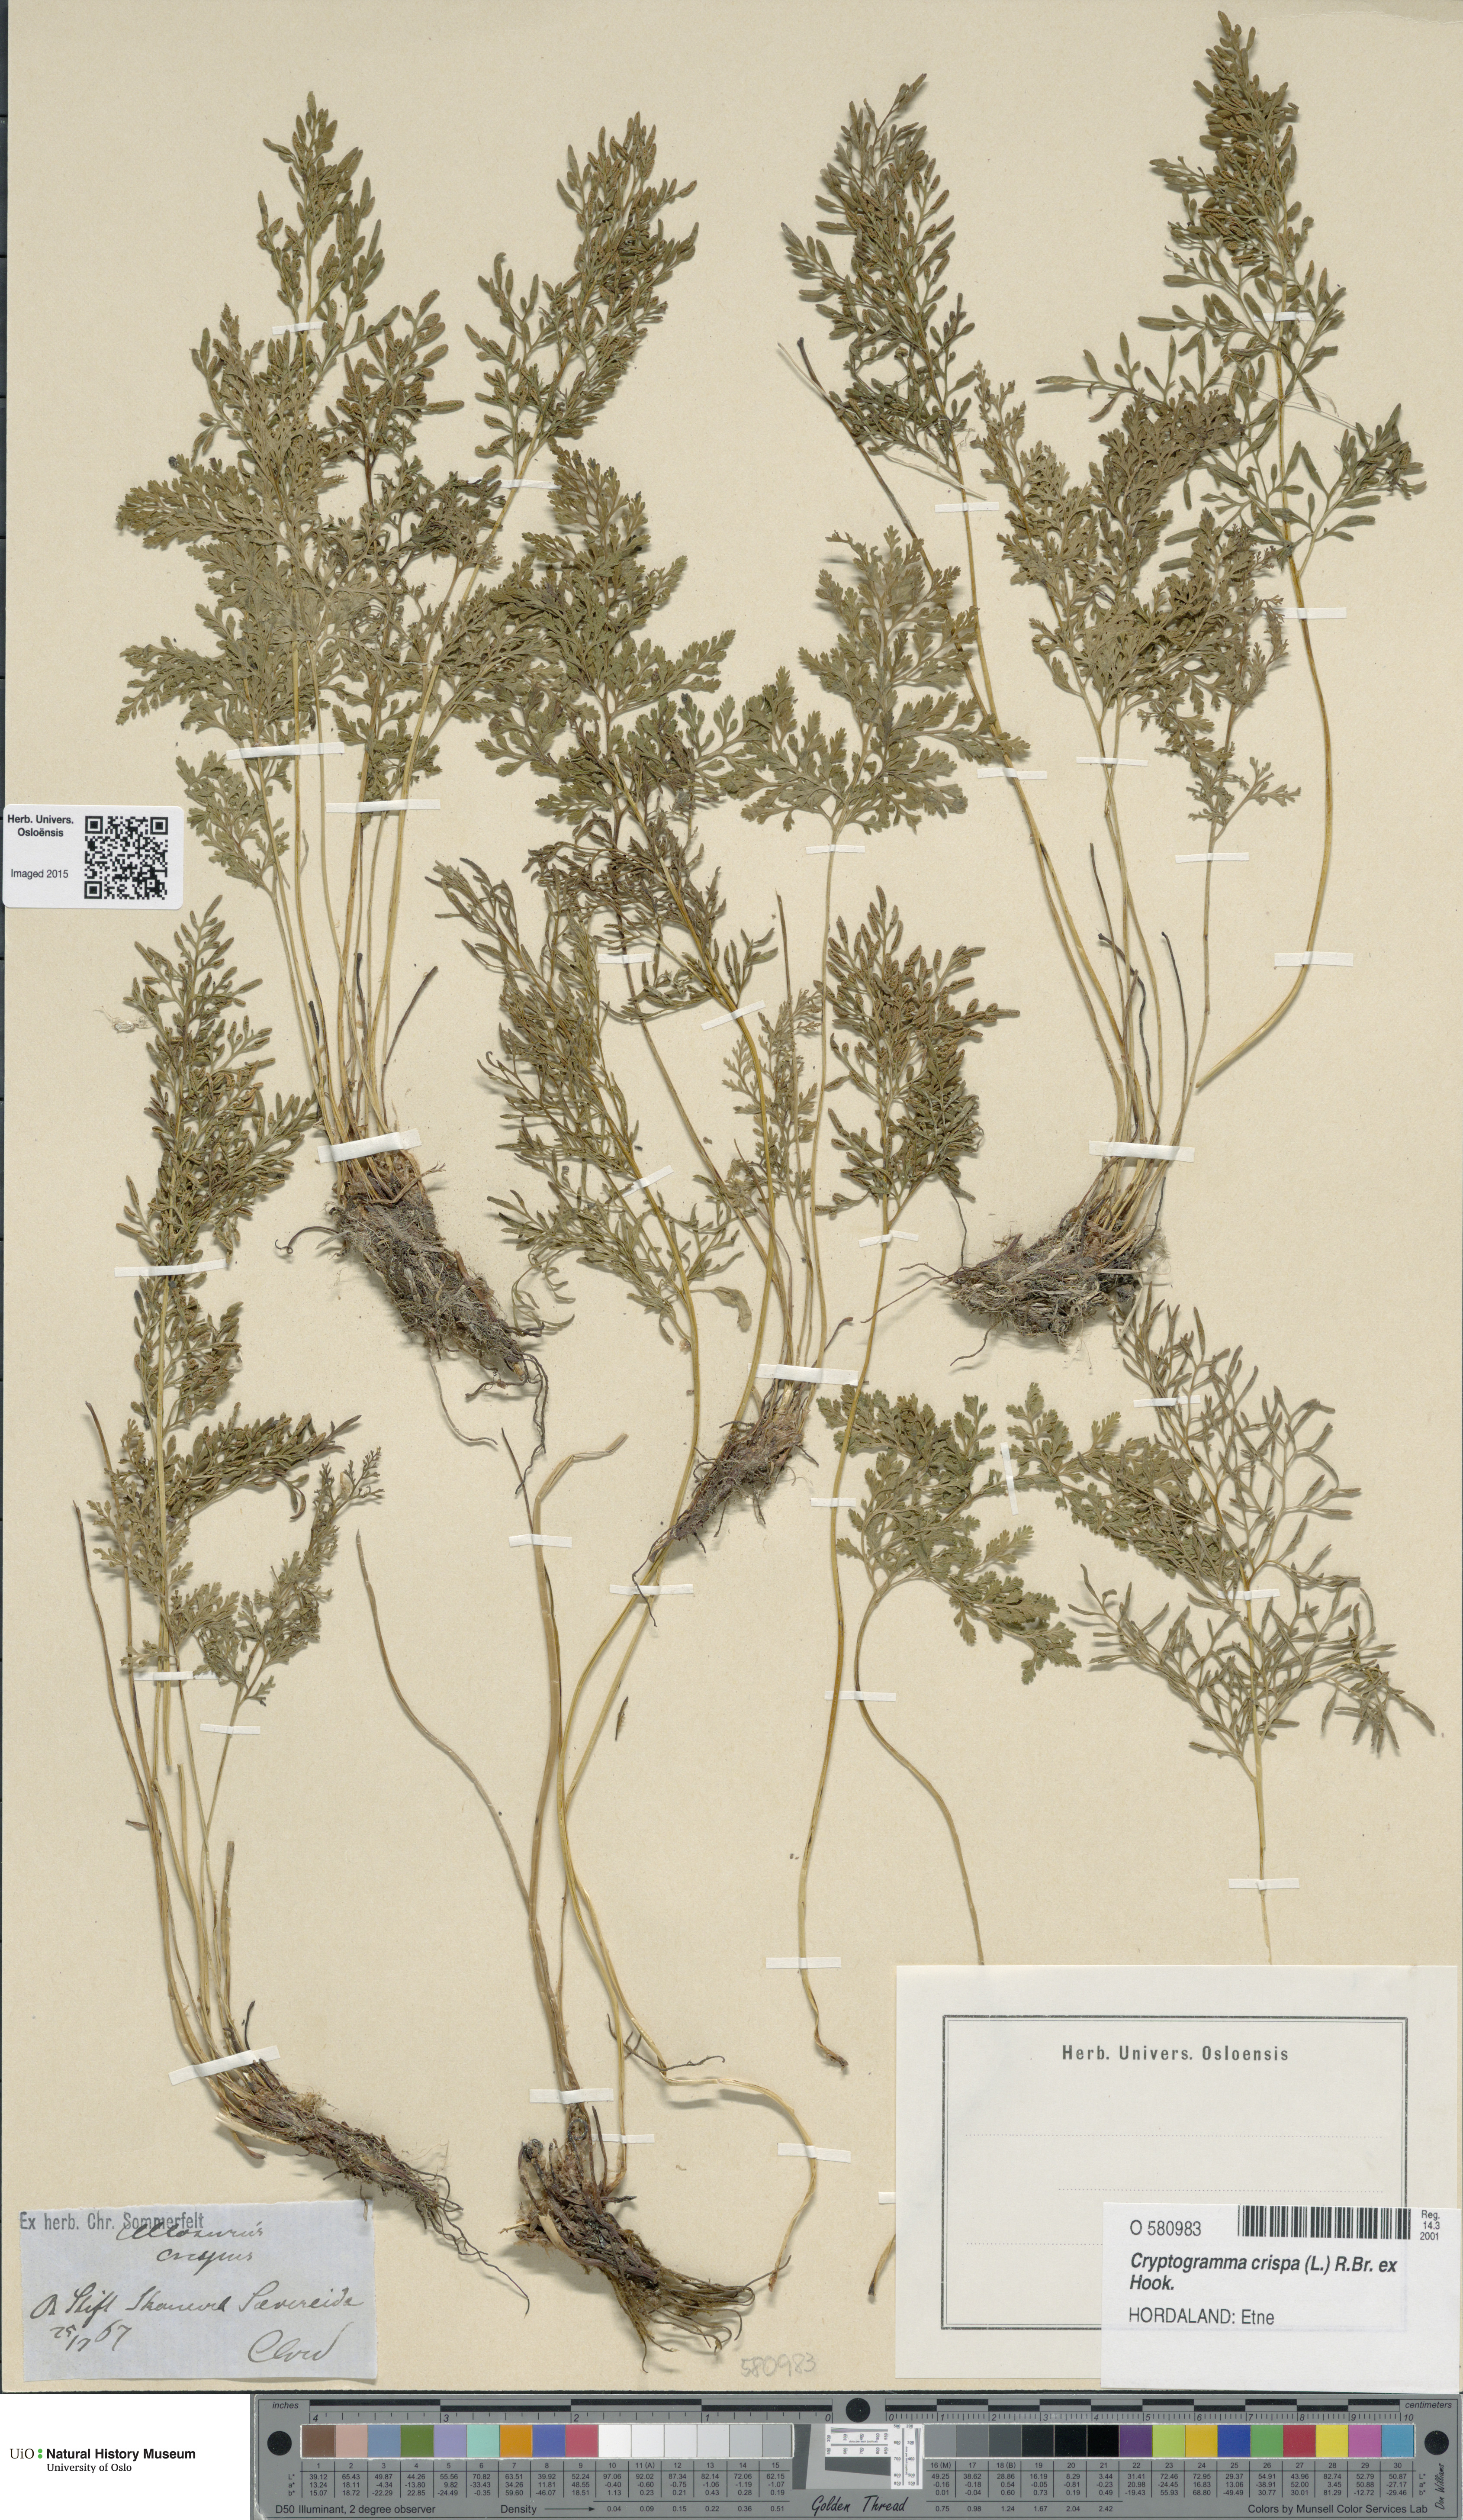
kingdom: Plantae
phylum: Tracheophyta
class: Polypodiopsida
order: Polypodiales
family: Pteridaceae
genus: Cryptogramma
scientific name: Cryptogramma crispa
